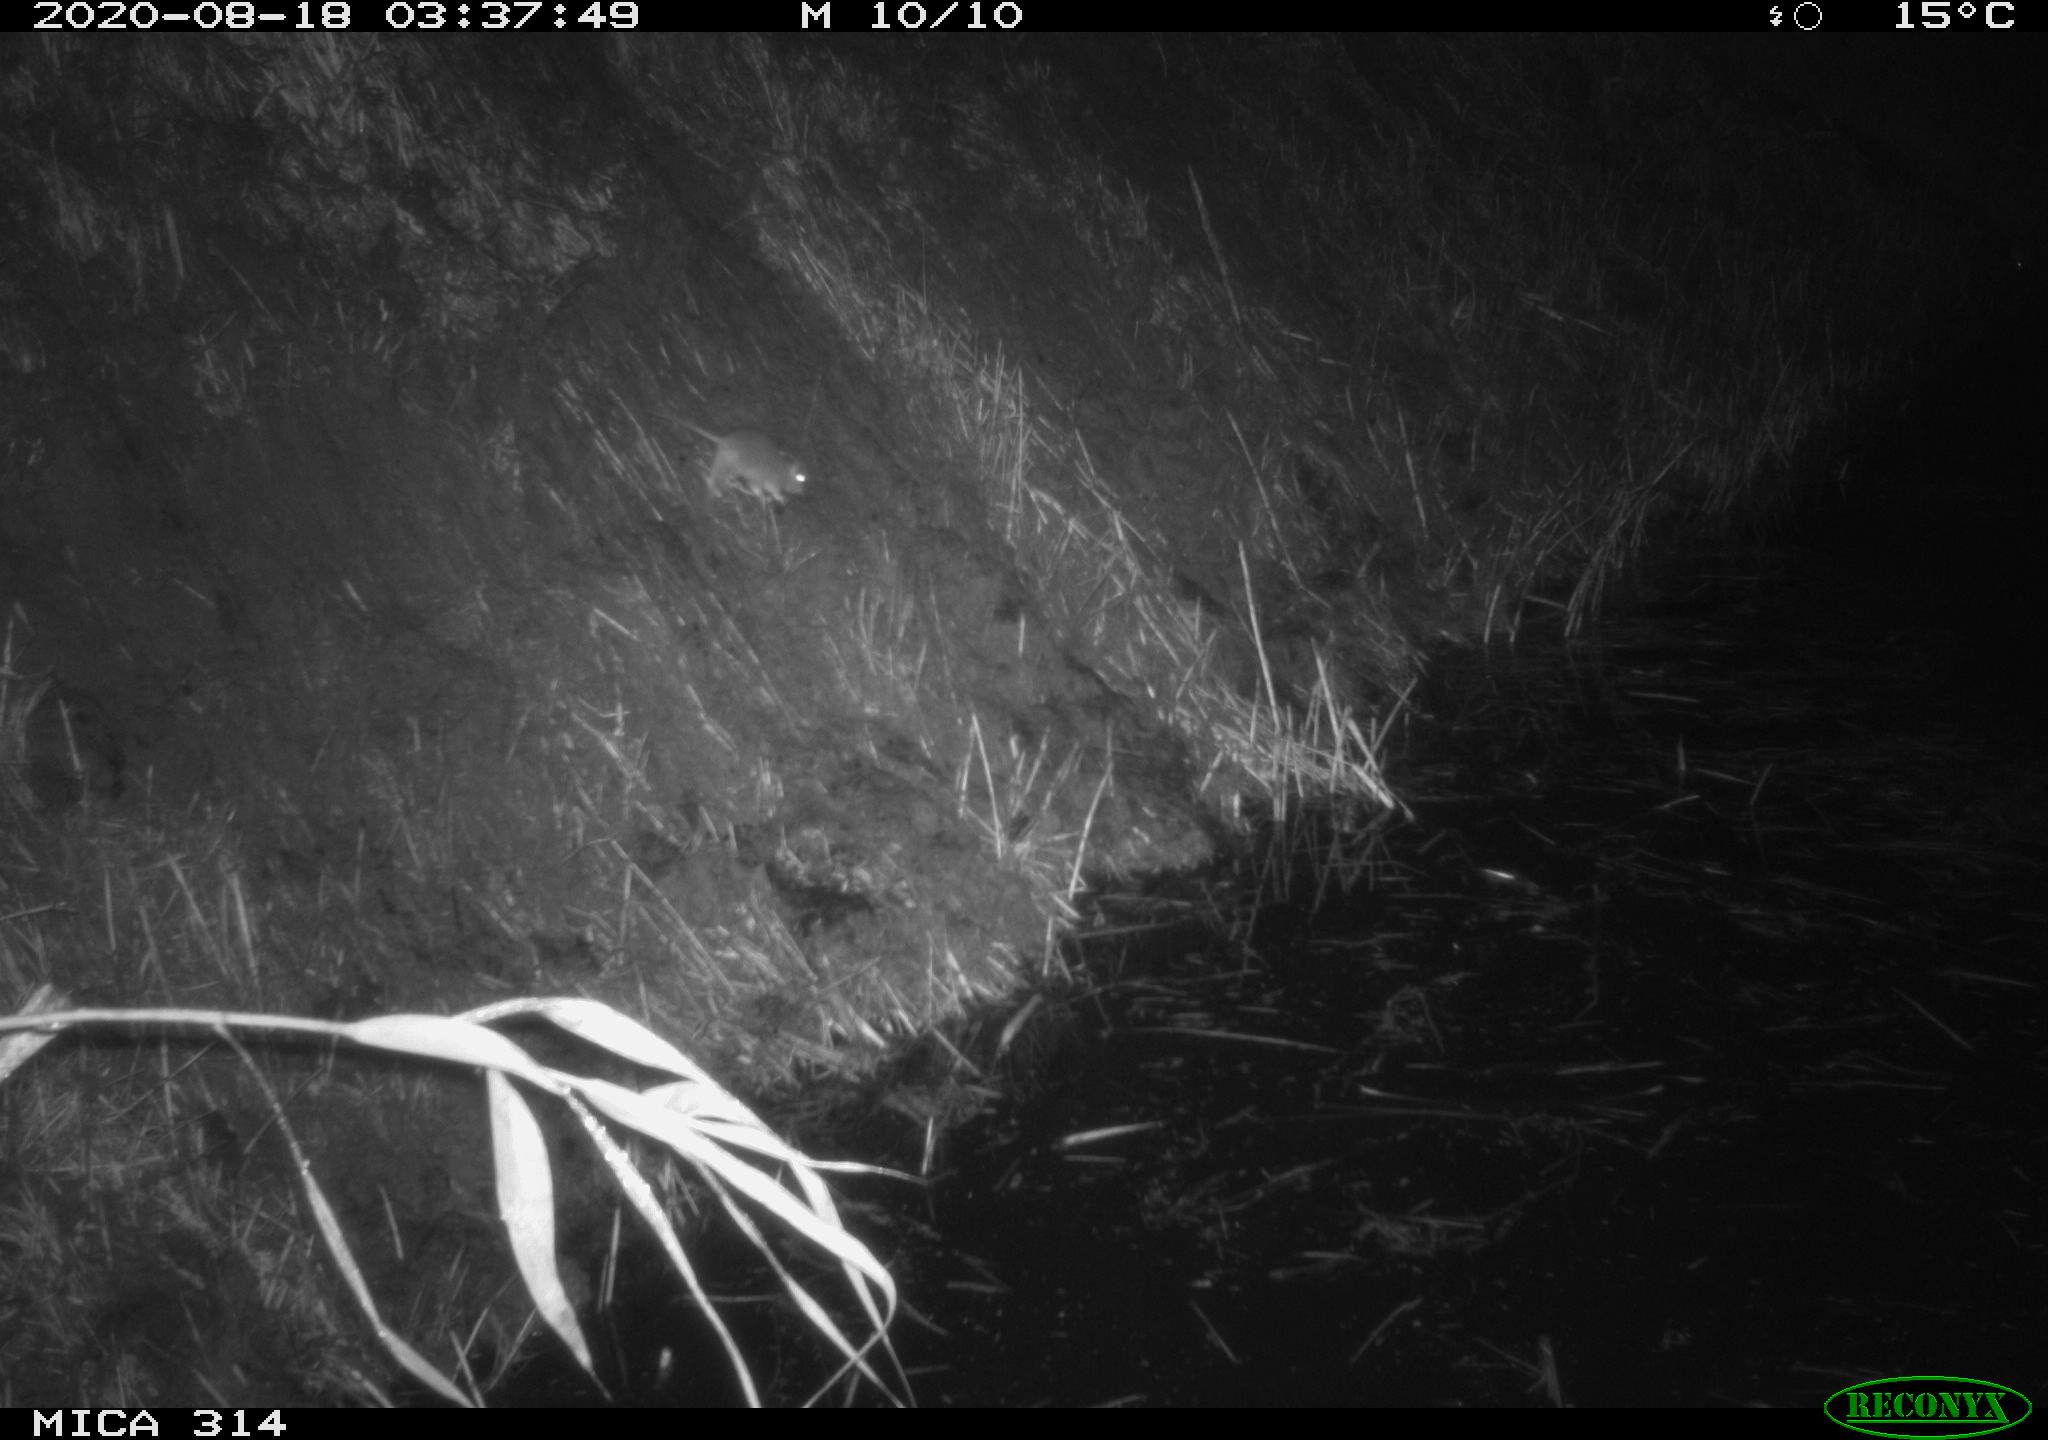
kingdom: Animalia
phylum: Chordata
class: Mammalia
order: Rodentia
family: Muridae
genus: Rattus
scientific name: Rattus norvegicus
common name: Brown rat
